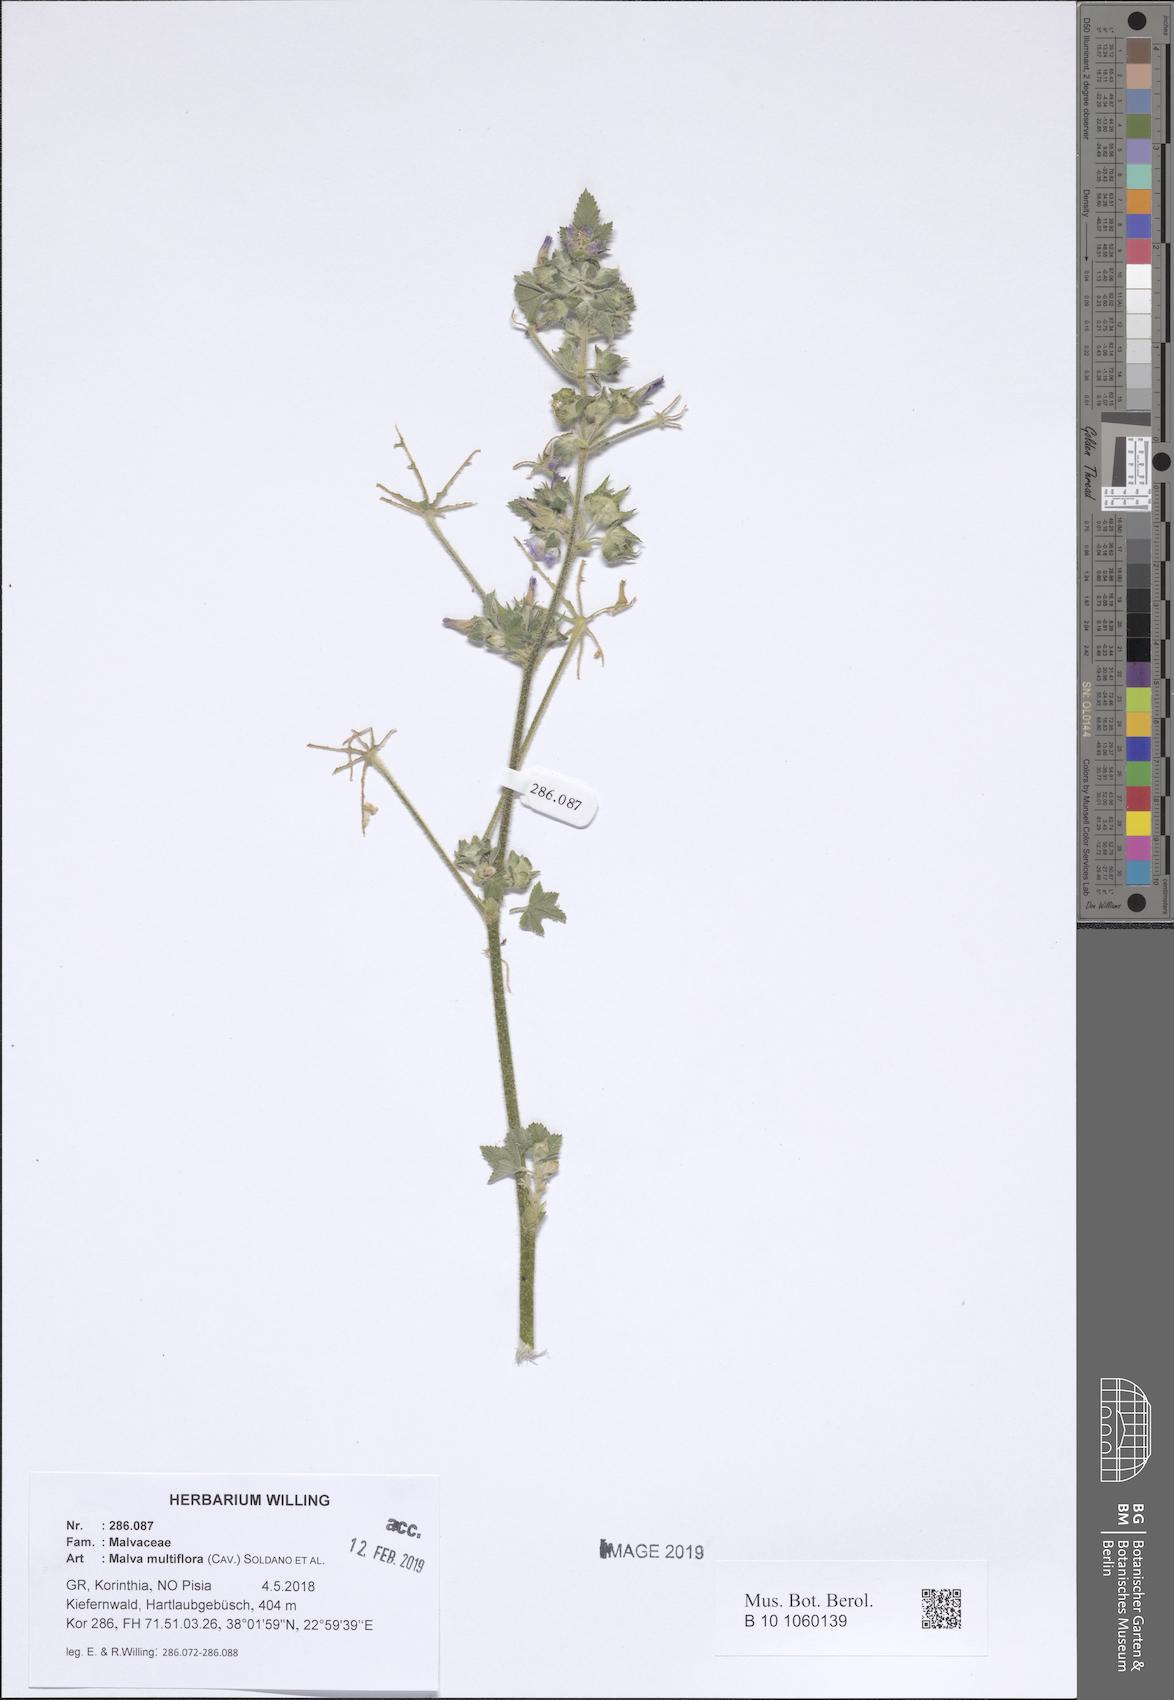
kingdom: Plantae
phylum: Tracheophyta
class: Magnoliopsida
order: Malvales
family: Malvaceae
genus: Malva
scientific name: Malva multiflora
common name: Cheeseweed
